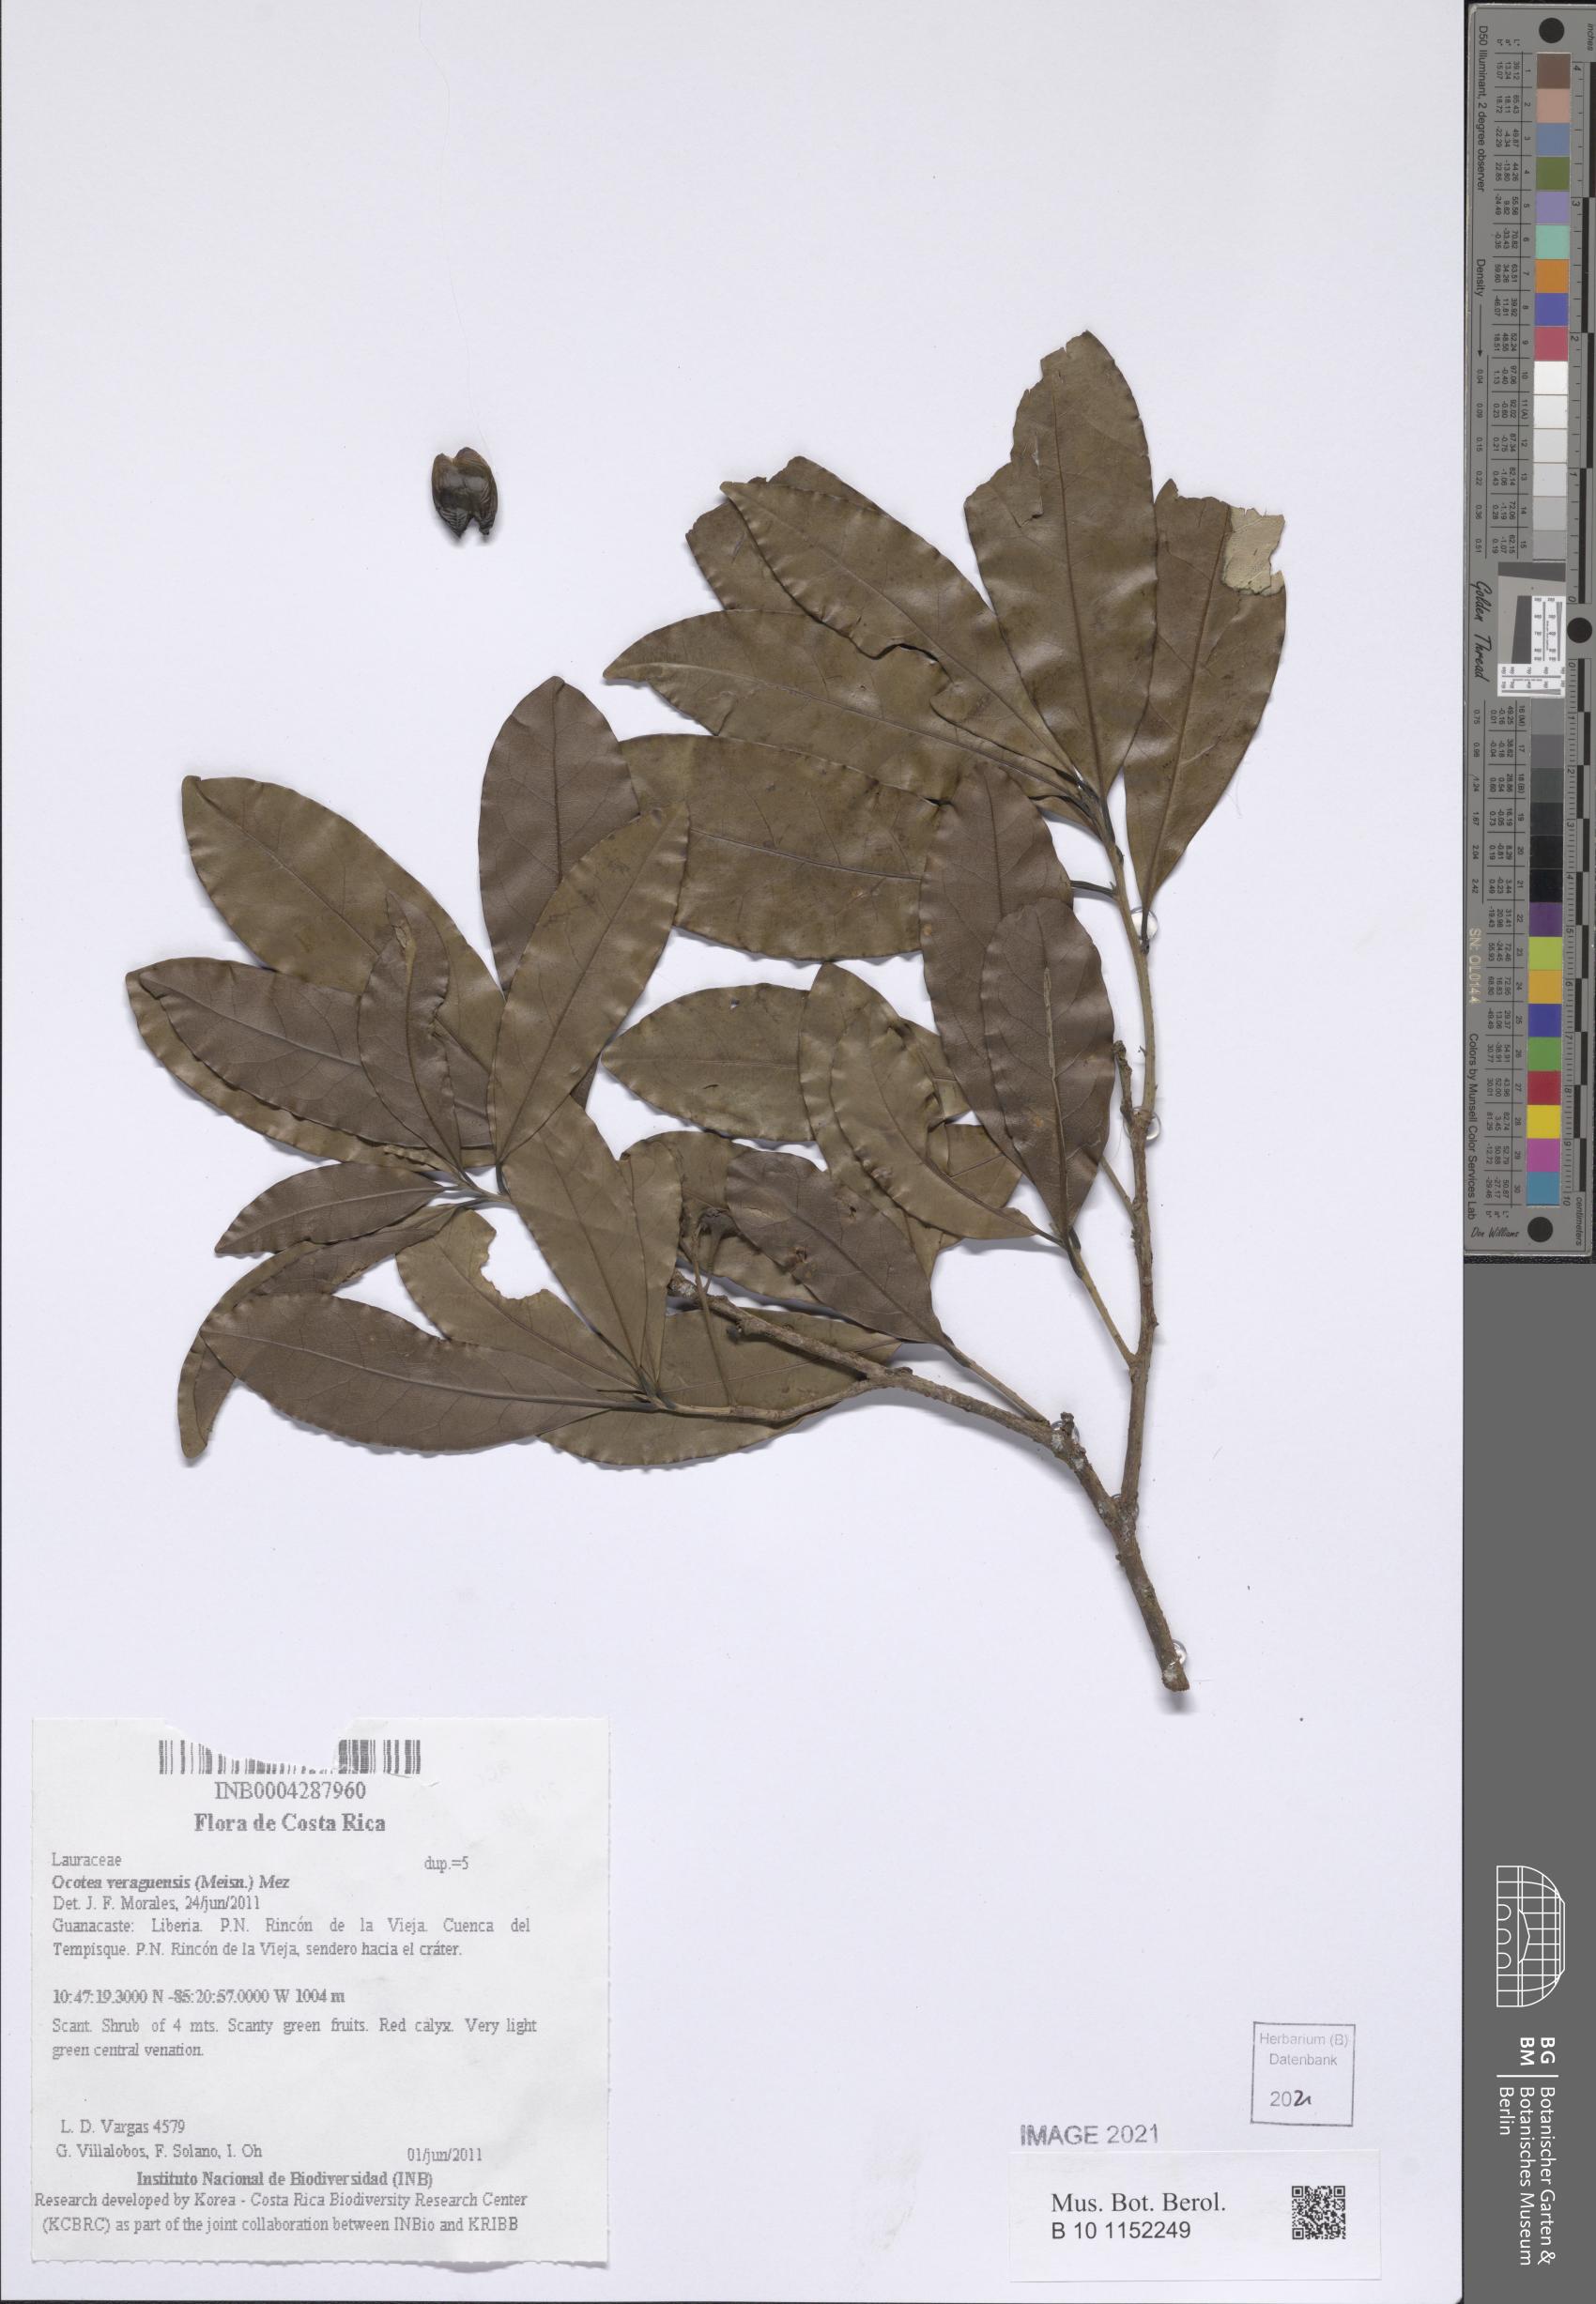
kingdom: Plantae
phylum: Tracheophyta
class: Magnoliopsida
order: Laurales
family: Lauraceae
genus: Mespilodaphne
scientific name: Mespilodaphne veraguensis
